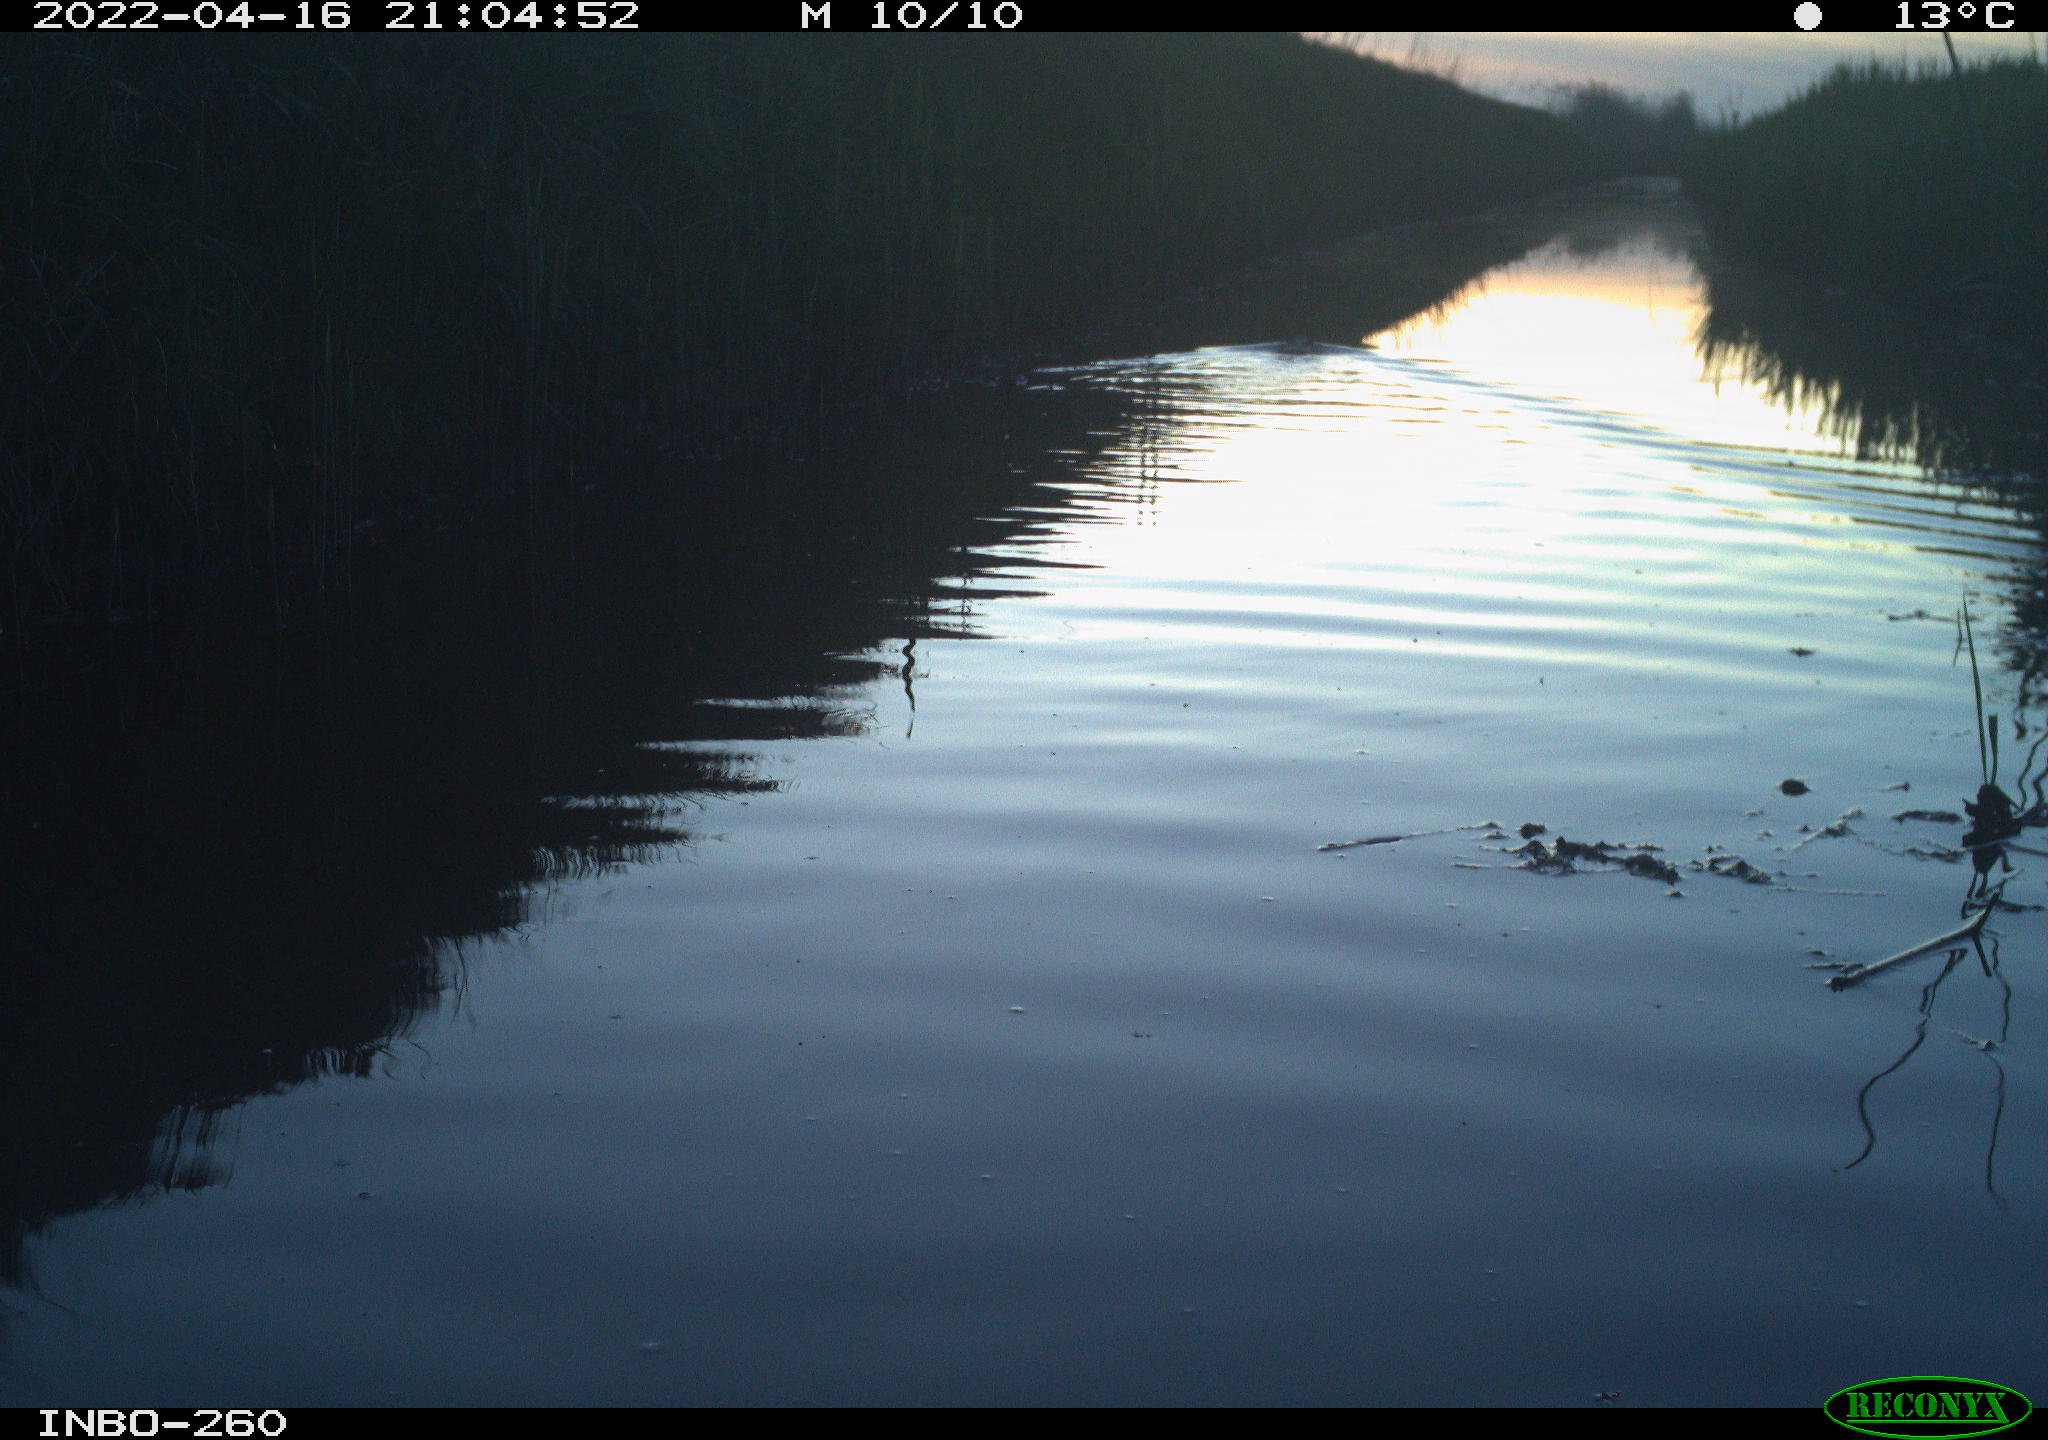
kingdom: Animalia
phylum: Chordata
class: Mammalia
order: Rodentia
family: Castoridae
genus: Castor
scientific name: Castor fiber
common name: Eurasian beaver
